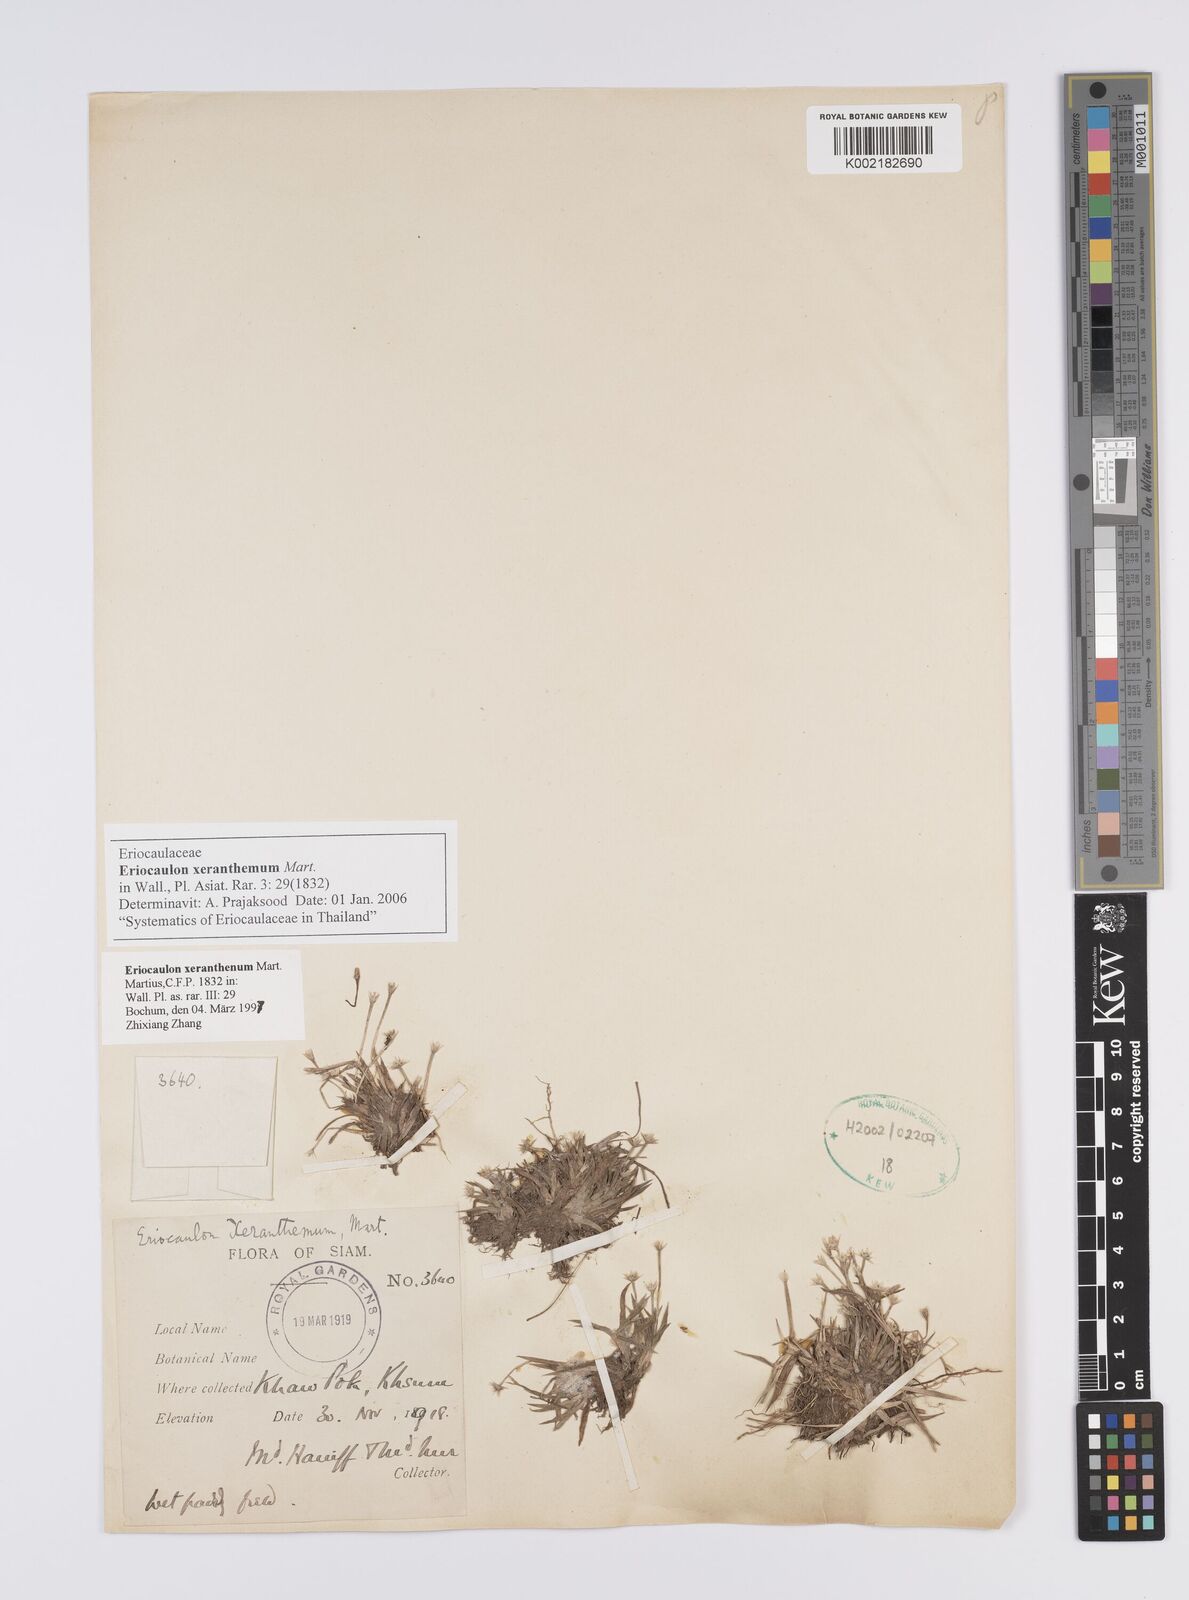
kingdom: Plantae
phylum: Tracheophyta
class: Liliopsida
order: Poales
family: Eriocaulaceae
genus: Eriocaulon
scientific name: Eriocaulon xeranthemum
